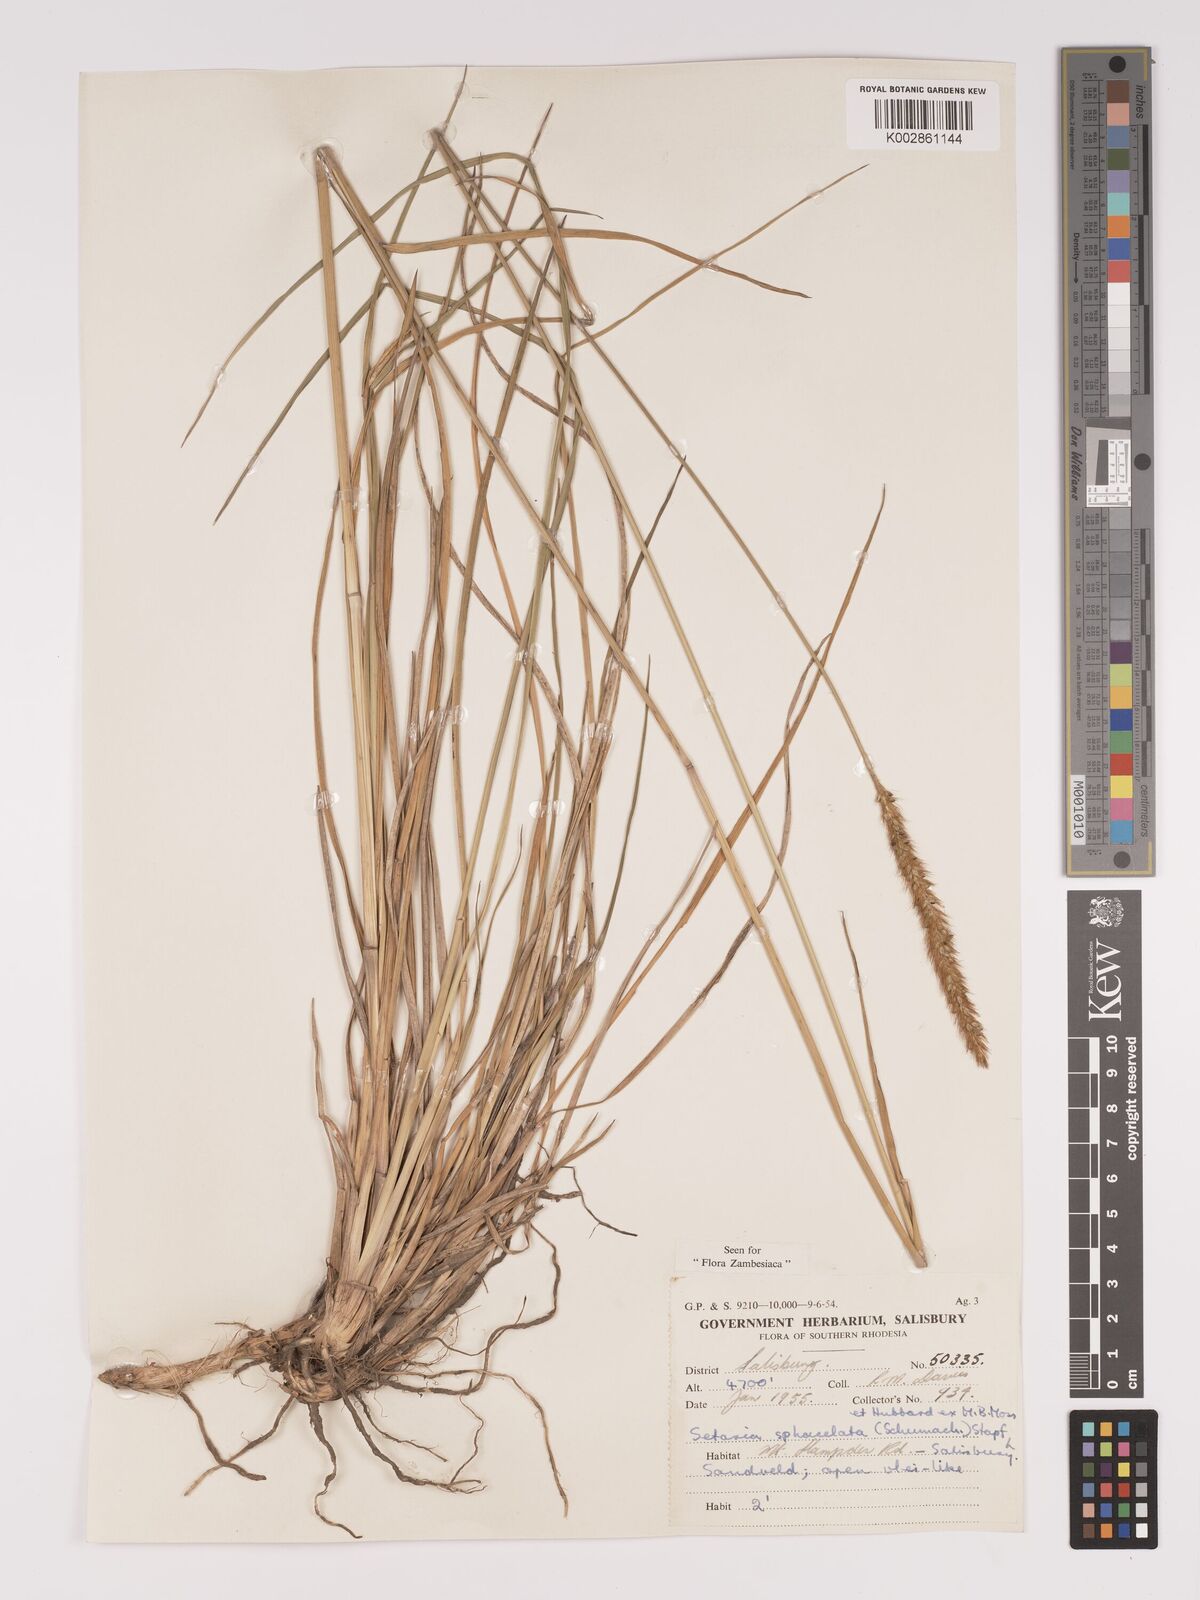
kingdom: Plantae
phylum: Tracheophyta
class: Liliopsida
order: Poales
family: Poaceae
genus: Setaria
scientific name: Setaria sphacelata
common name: African bristlegrass
